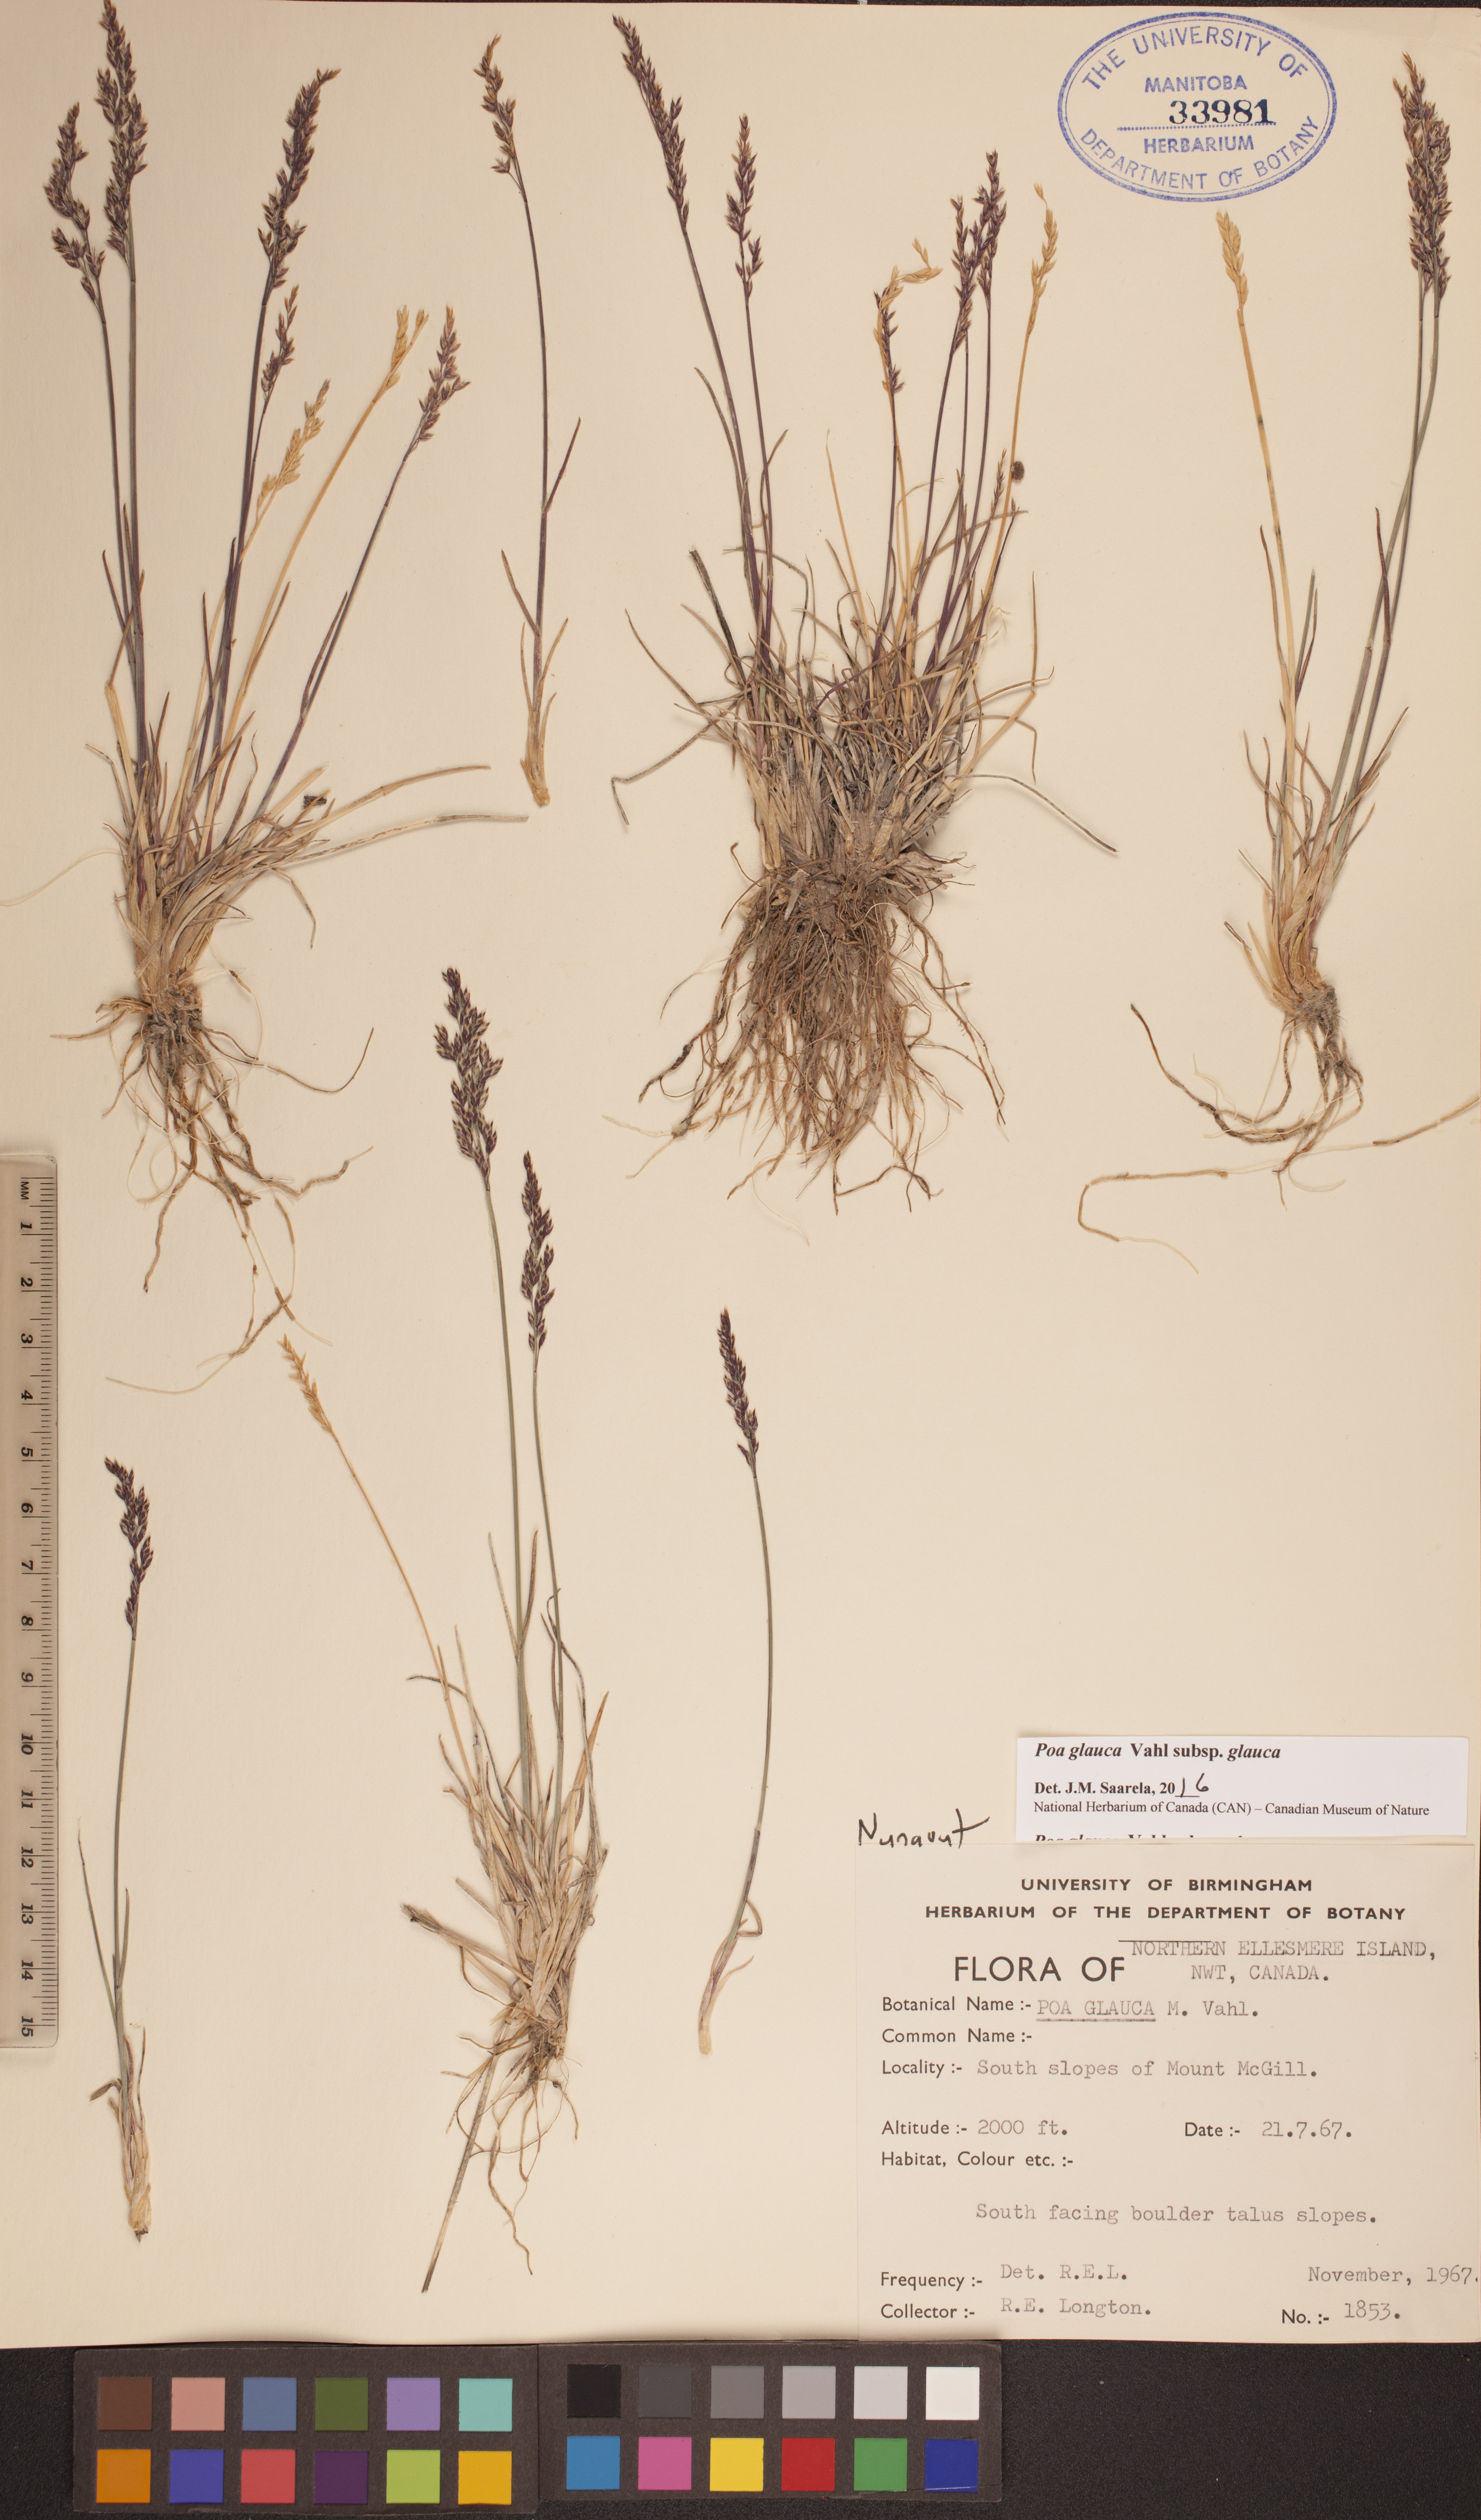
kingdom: Plantae
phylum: Tracheophyta
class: Liliopsida
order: Poales
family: Poaceae
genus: Poa
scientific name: Poa glauca
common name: Glaucous bluegrass
